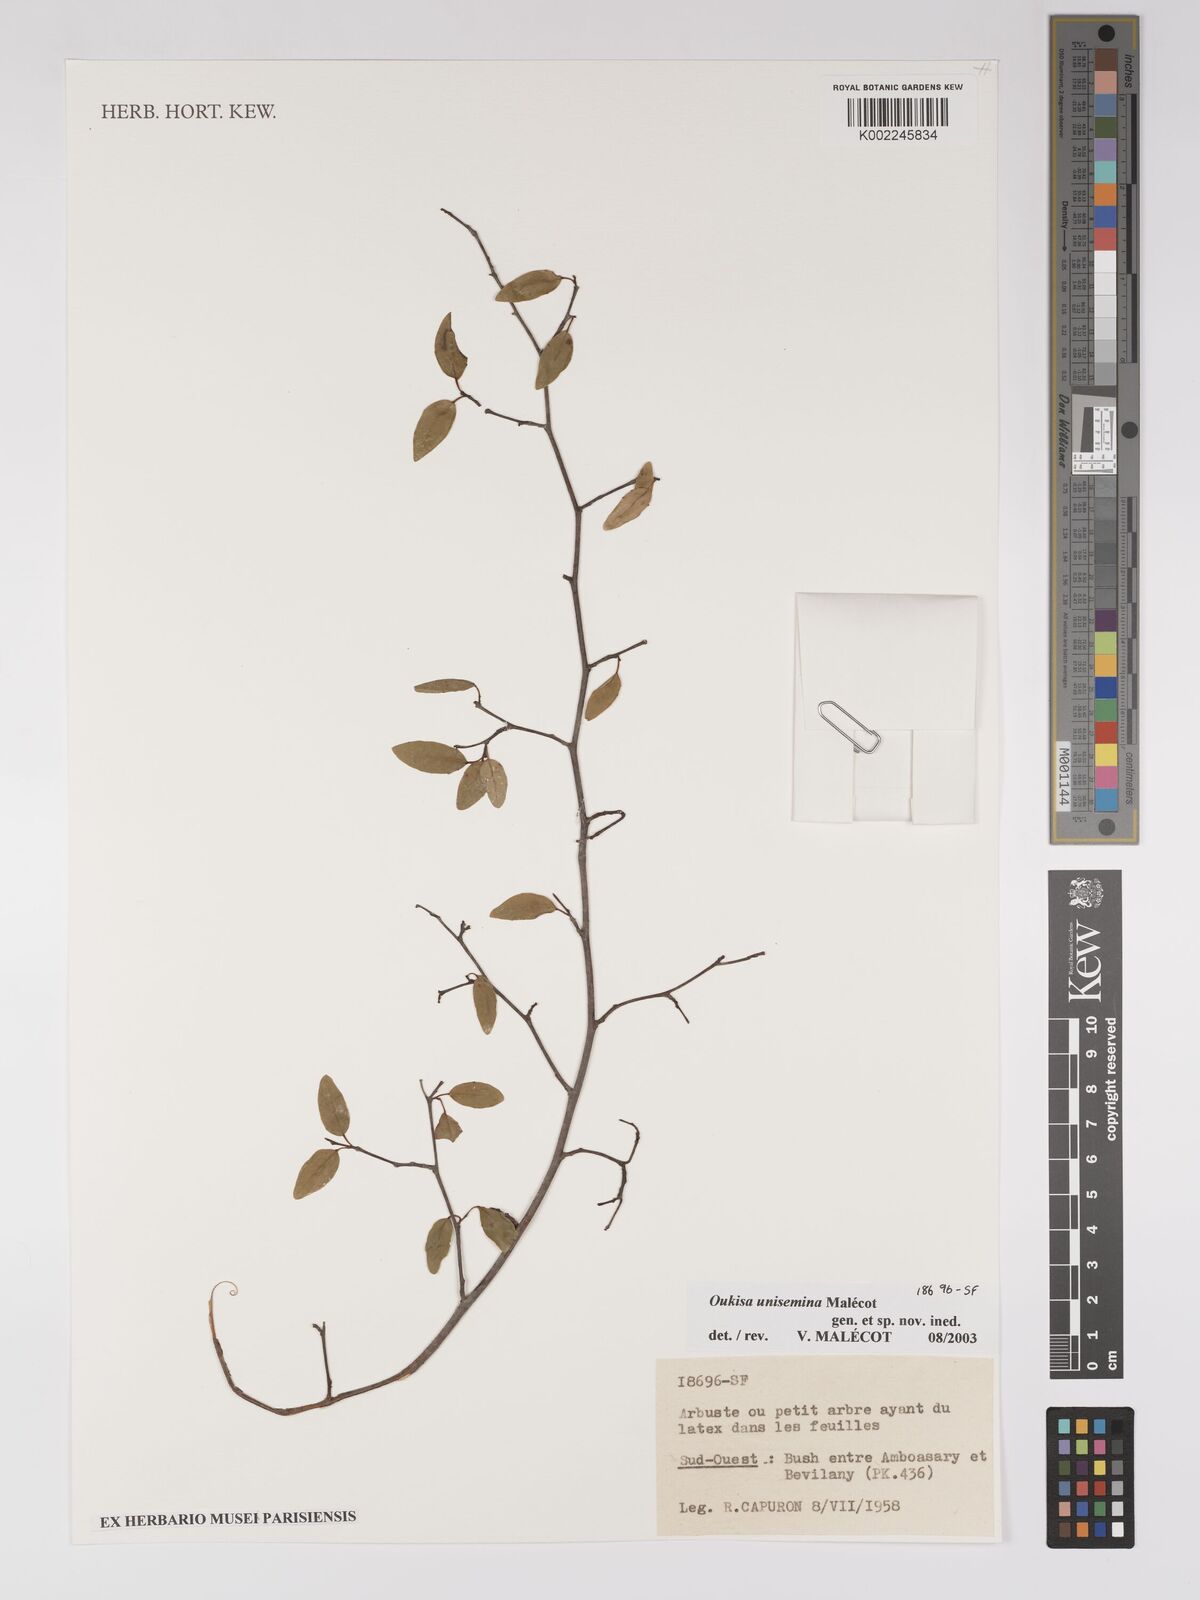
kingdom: Plantae
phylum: Tracheophyta
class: Magnoliopsida
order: Malpighiales
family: Euphorbiaceae
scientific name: Euphorbiaceae
